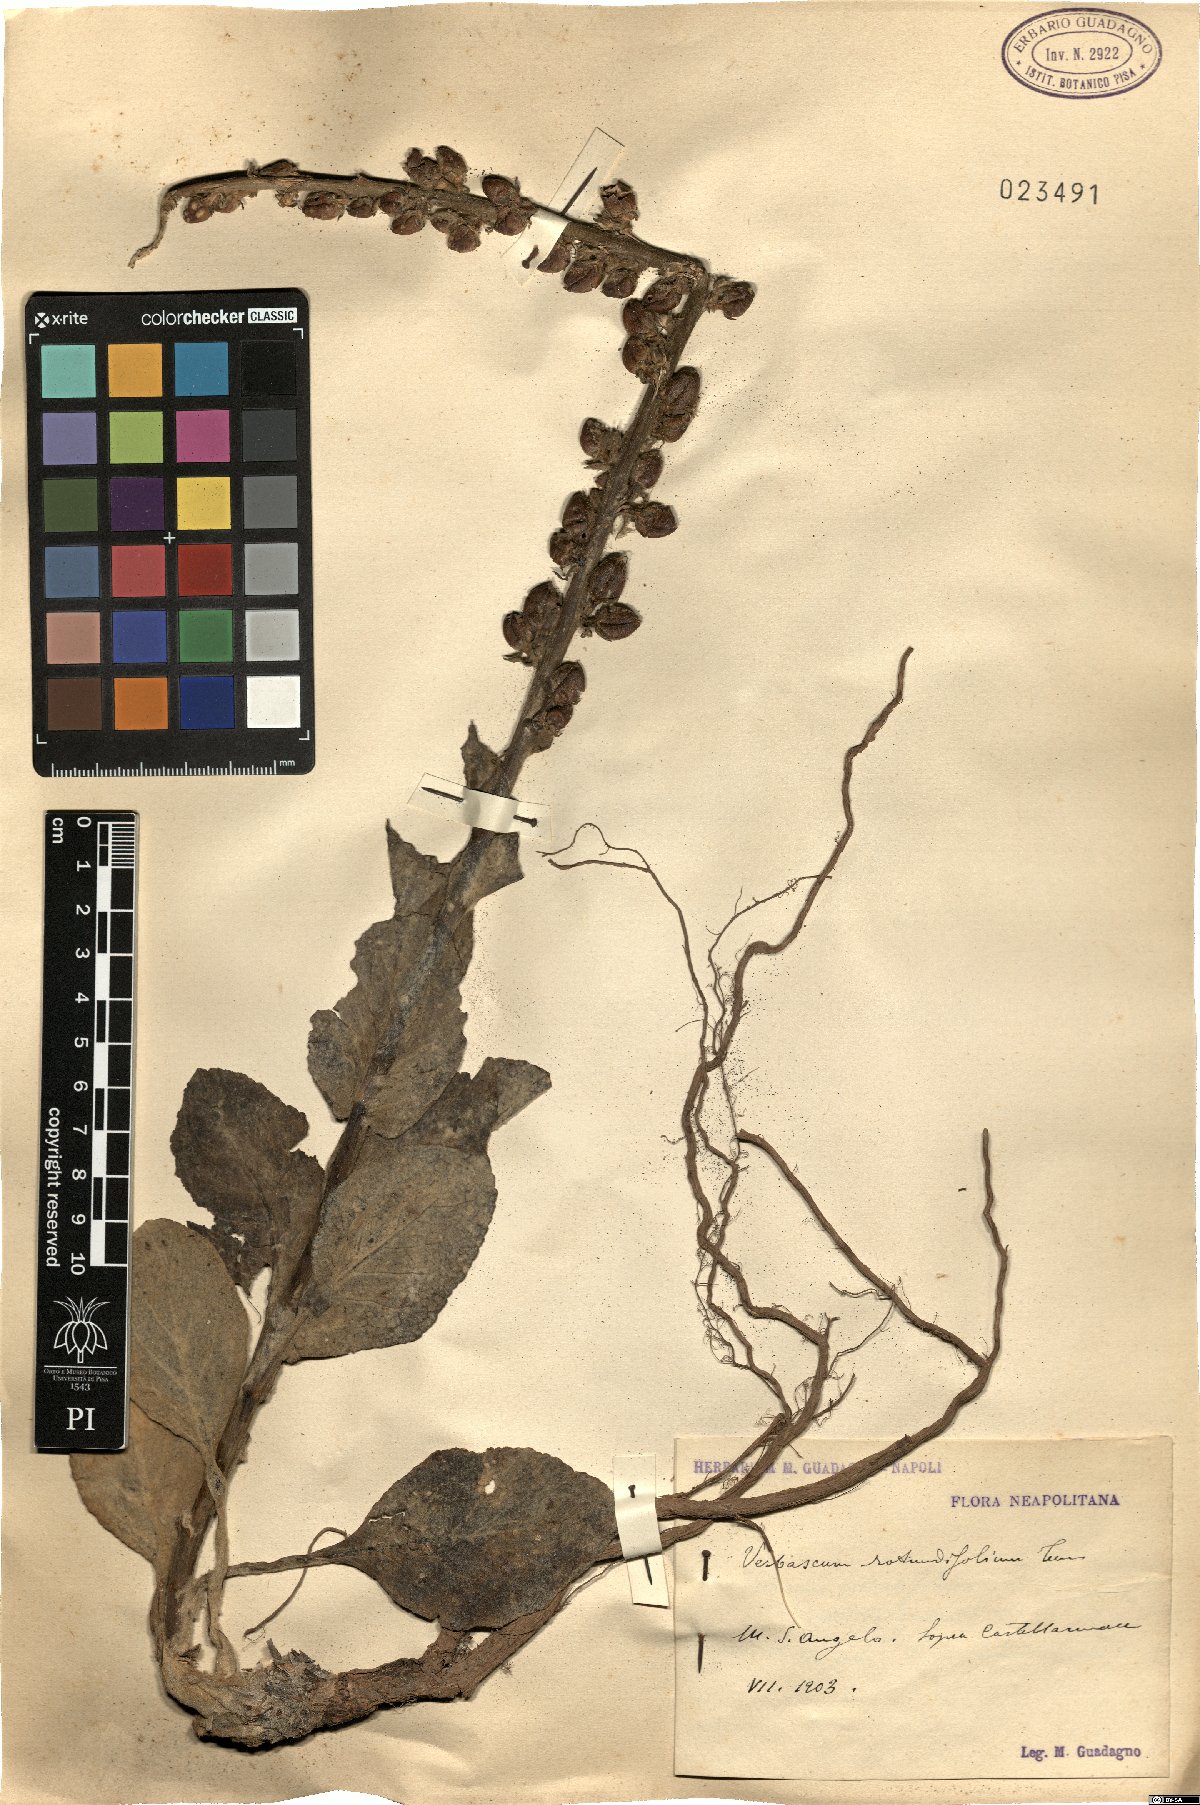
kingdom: Plantae
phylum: Tracheophyta
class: Magnoliopsida
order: Lamiales
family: Scrophulariaceae
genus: Verbascum
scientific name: Verbascum rotundifolium
